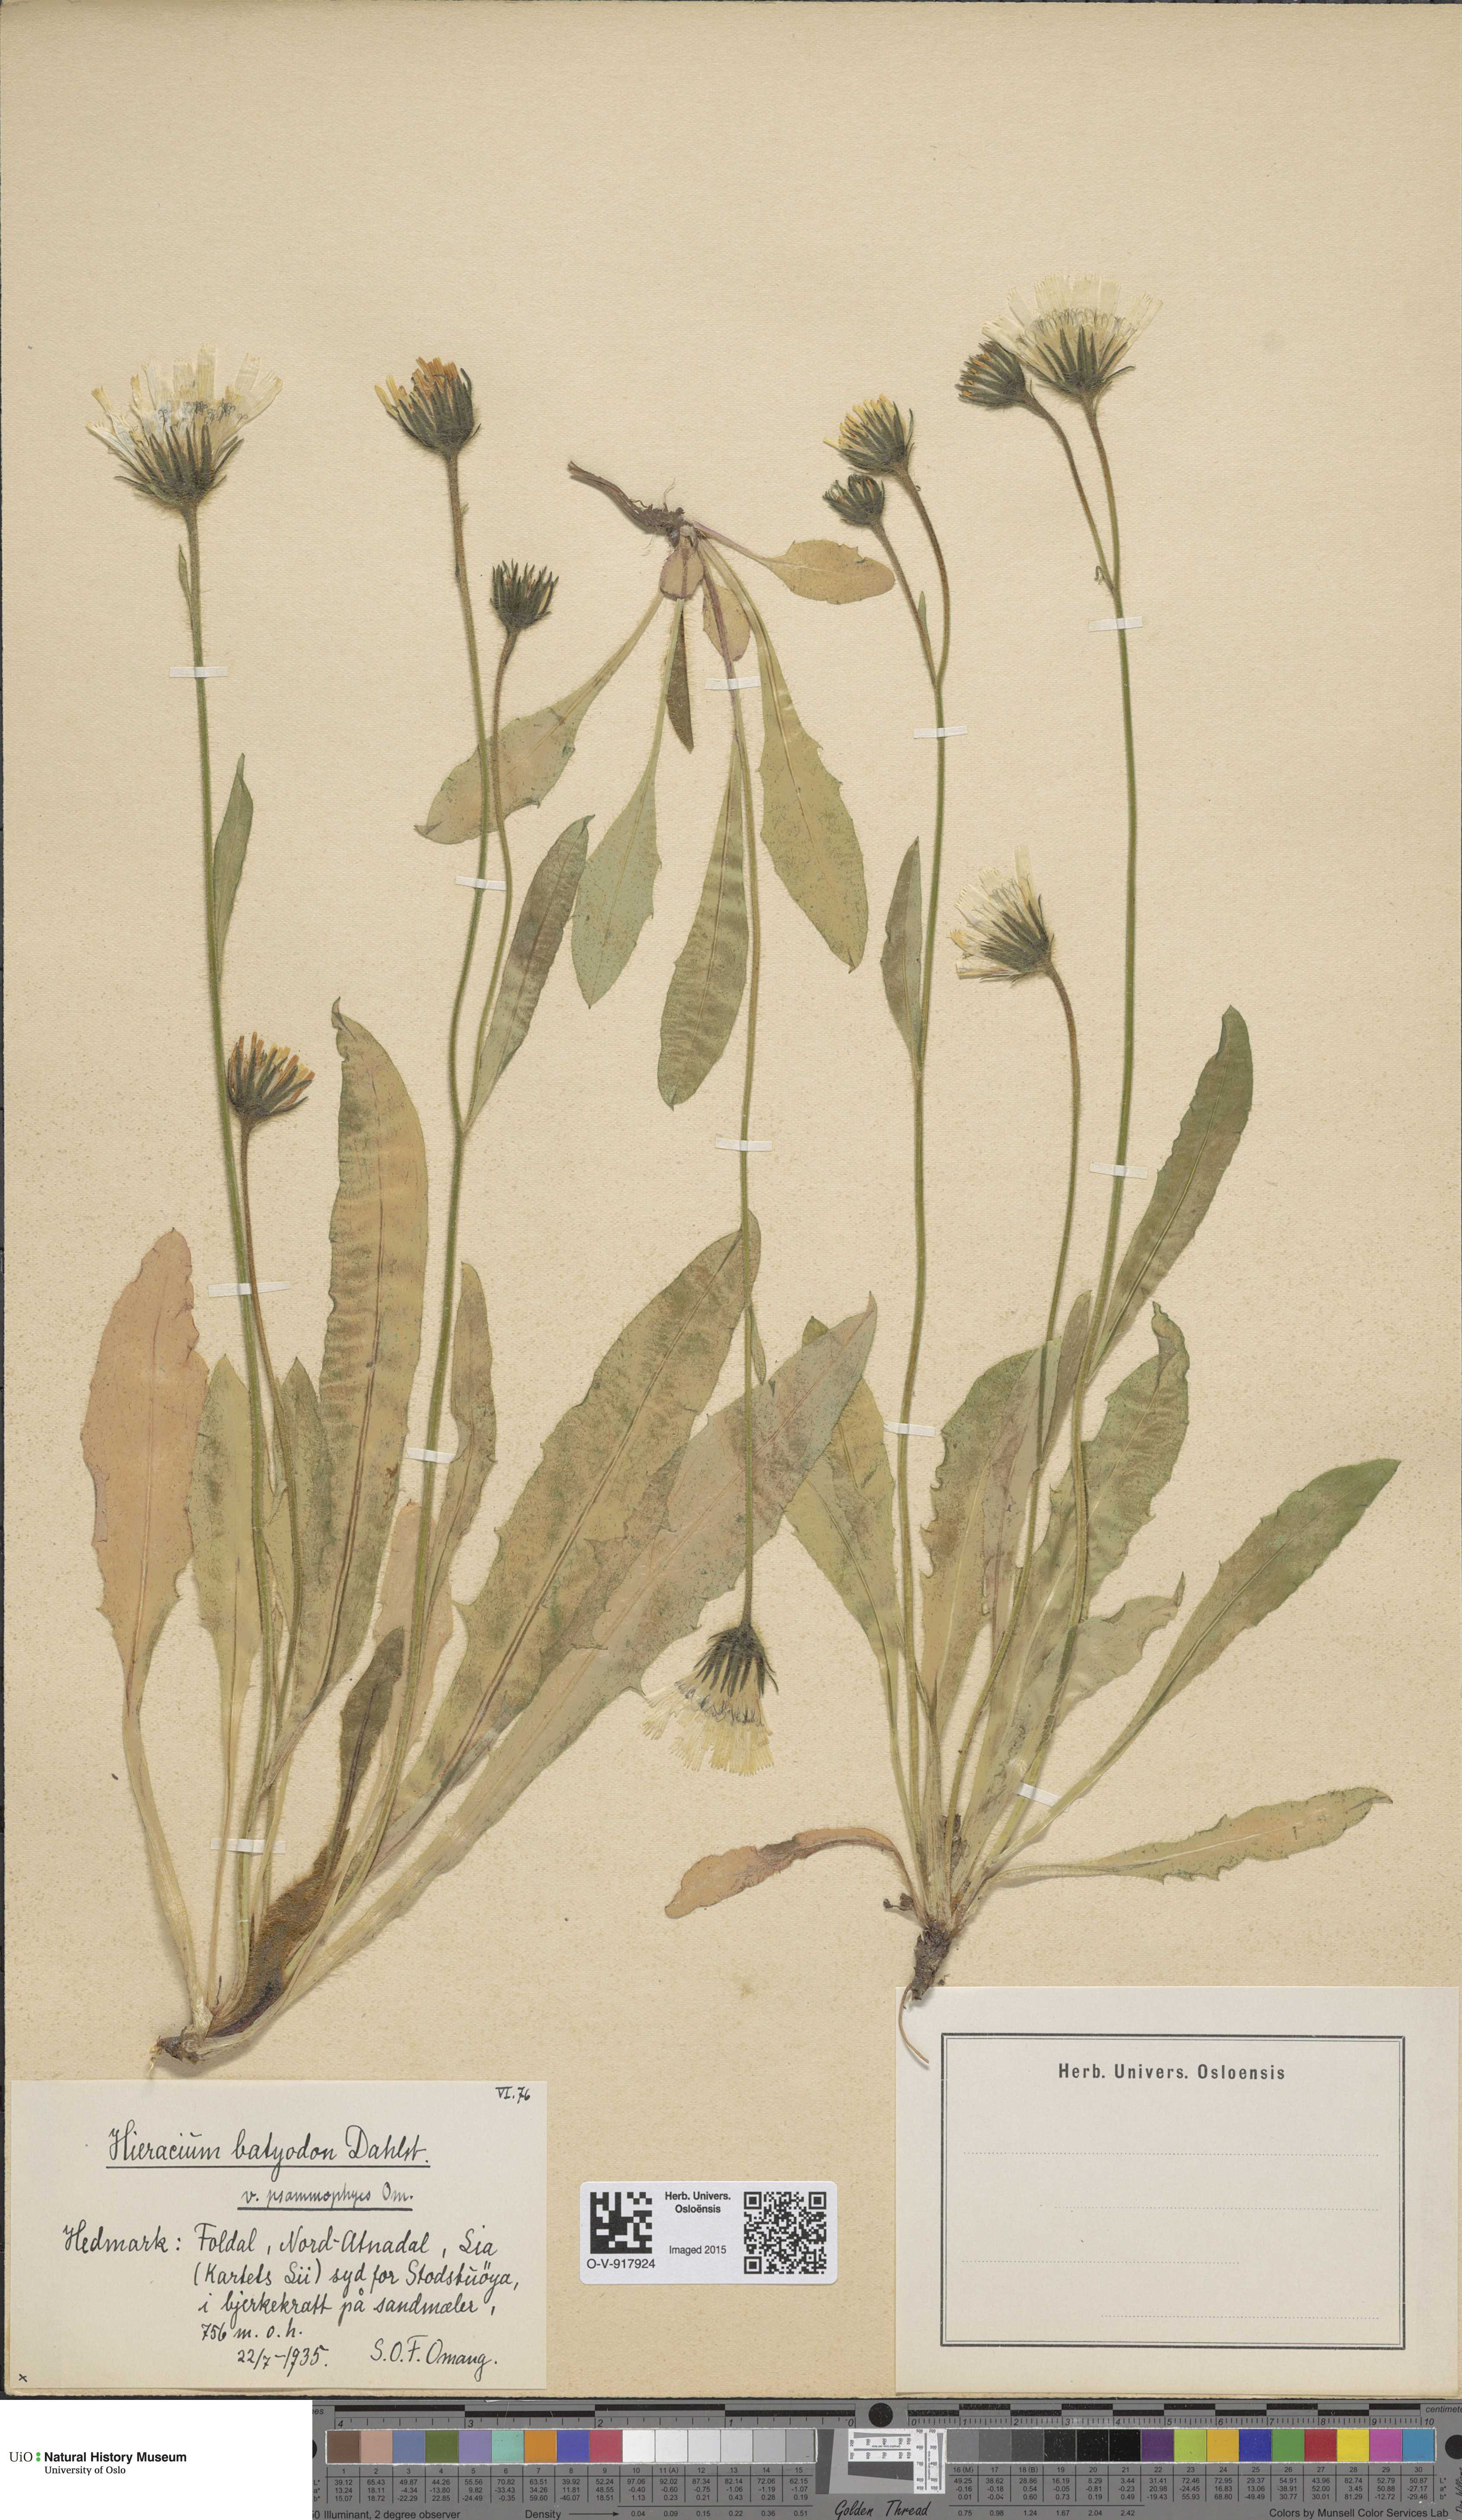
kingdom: Plantae
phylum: Tracheophyta
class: Magnoliopsida
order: Asterales
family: Asteraceae
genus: Hieracium
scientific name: Hieracium
